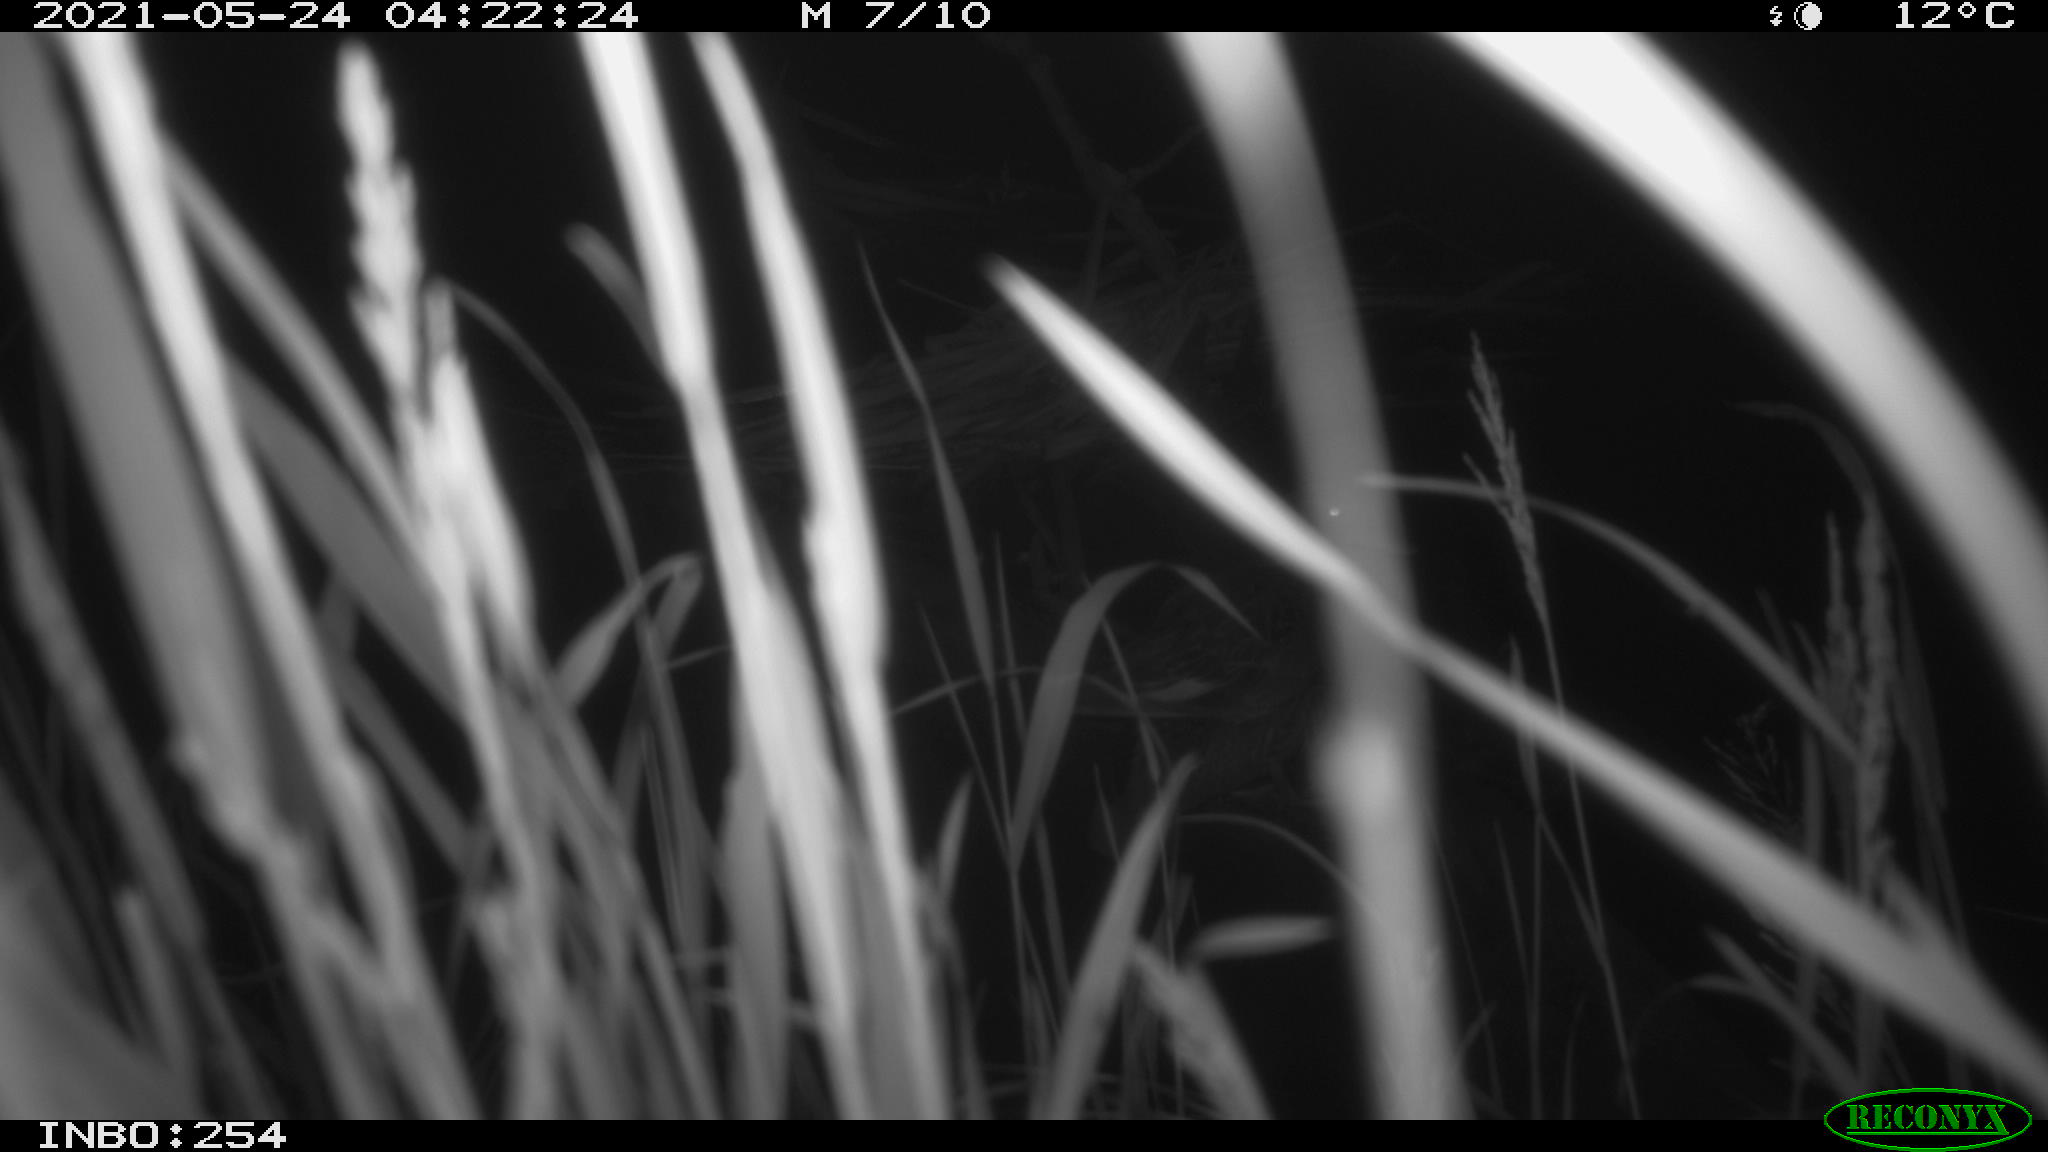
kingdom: Animalia
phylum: Chordata
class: Aves
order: Anseriformes
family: Anatidae
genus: Anas
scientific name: Anas platyrhynchos
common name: Mallard
